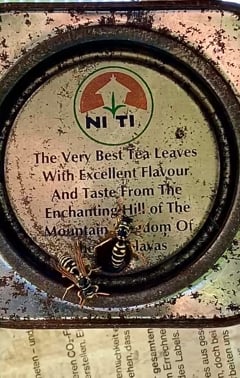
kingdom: Animalia
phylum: Arthropoda
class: Insecta
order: Hymenoptera
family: Eumenidae
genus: Polistes
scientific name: Polistes dominula
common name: Paper wasp
